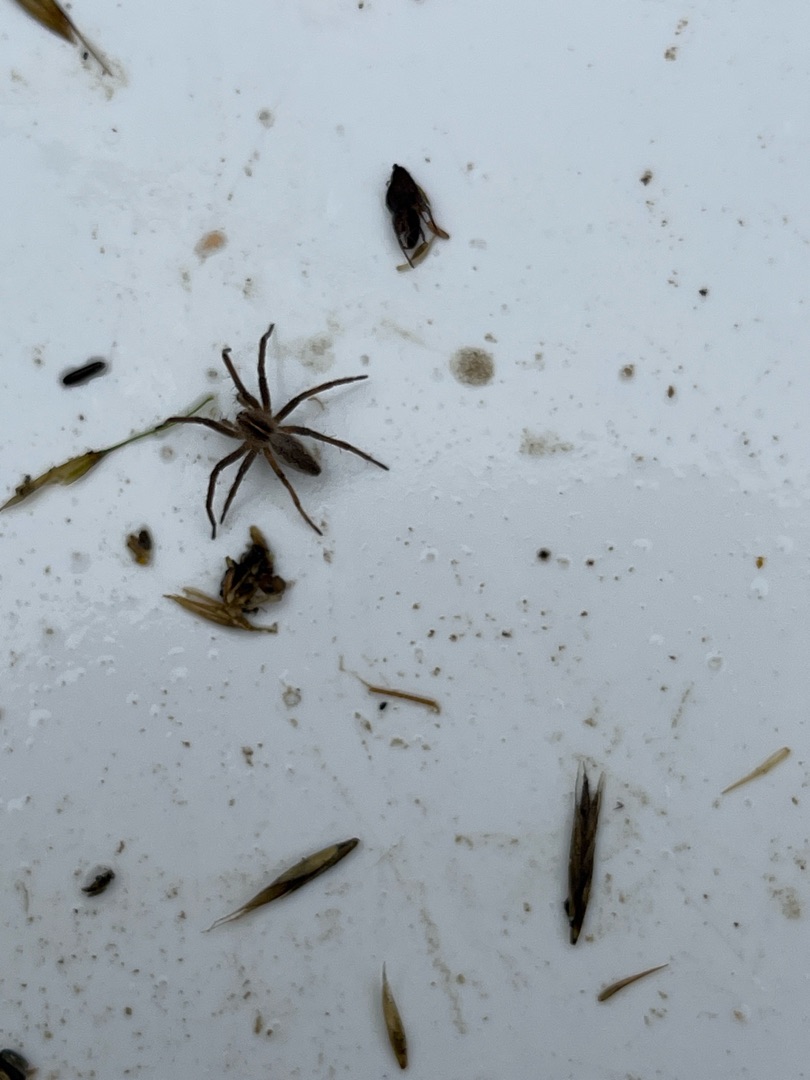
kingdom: Animalia
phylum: Arthropoda
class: Arachnida
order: Araneae
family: Pisauridae
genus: Pisaura
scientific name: Pisaura mirabilis
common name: Almindelig rovedderkop
